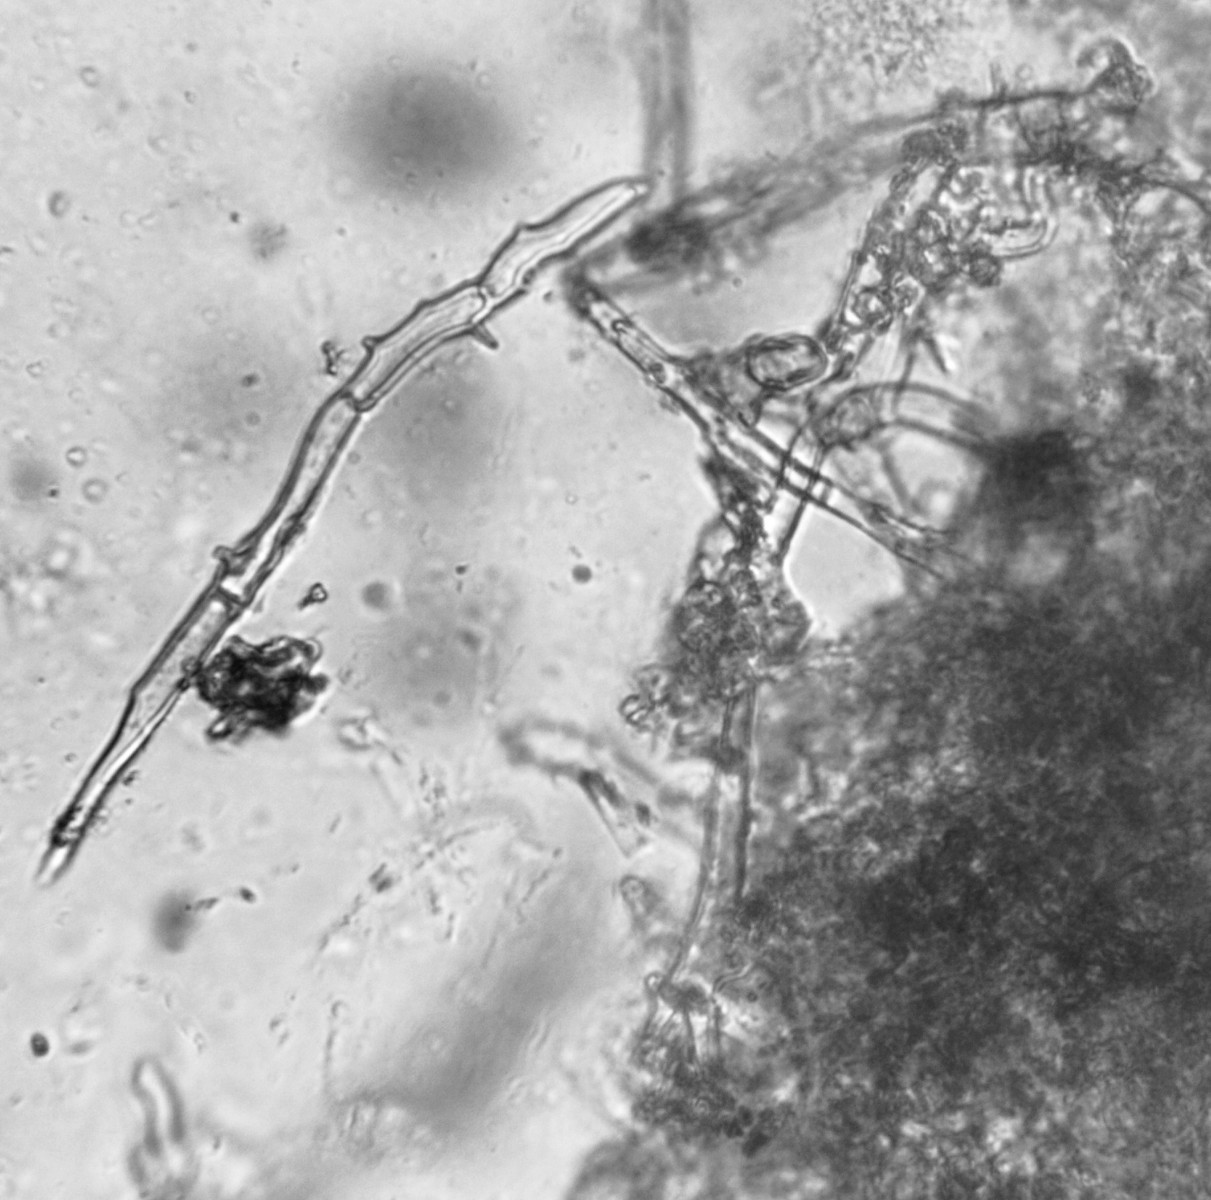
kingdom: Fungi
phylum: Basidiomycota
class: Agaricomycetes
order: Agaricales
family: Psathyrellaceae
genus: Coprinopsis
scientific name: Coprinopsis friesii
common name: græs-blækhat
